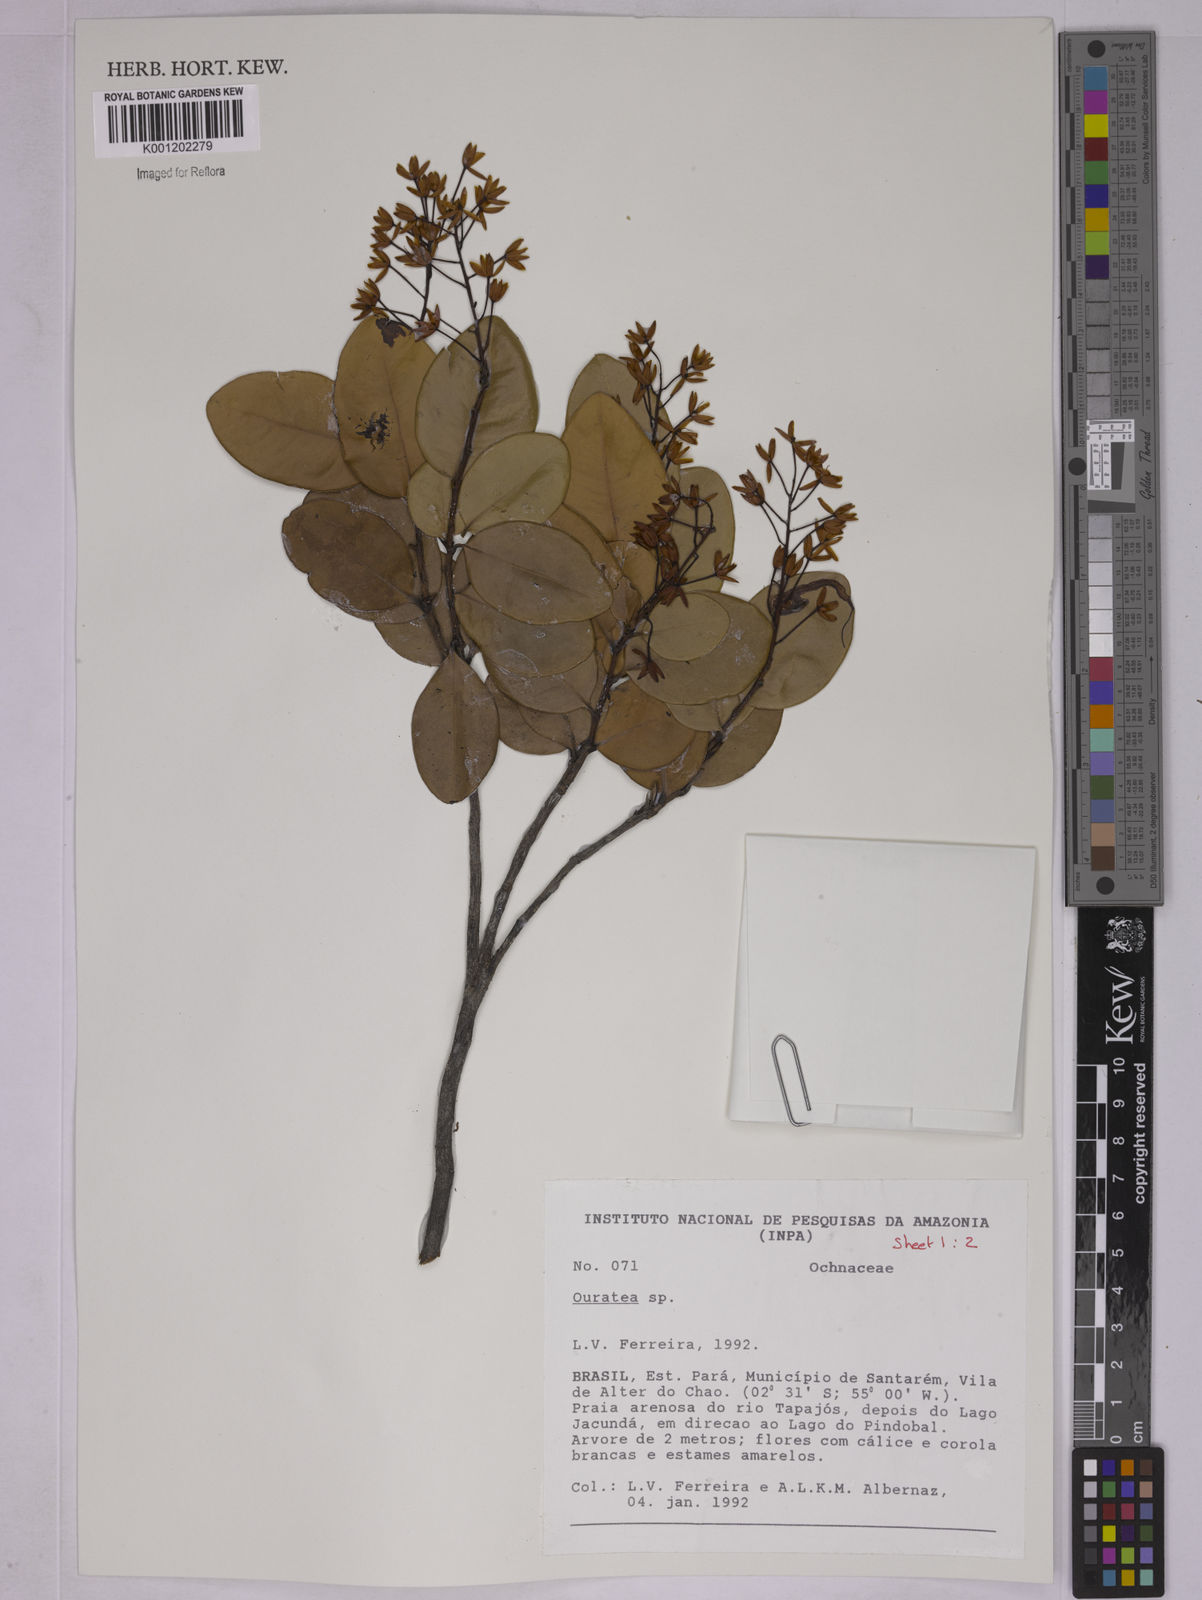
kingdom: Plantae
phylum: Tracheophyta
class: Magnoliopsida
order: Malpighiales
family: Ochnaceae
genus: Ouratea
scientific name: Ouratea
